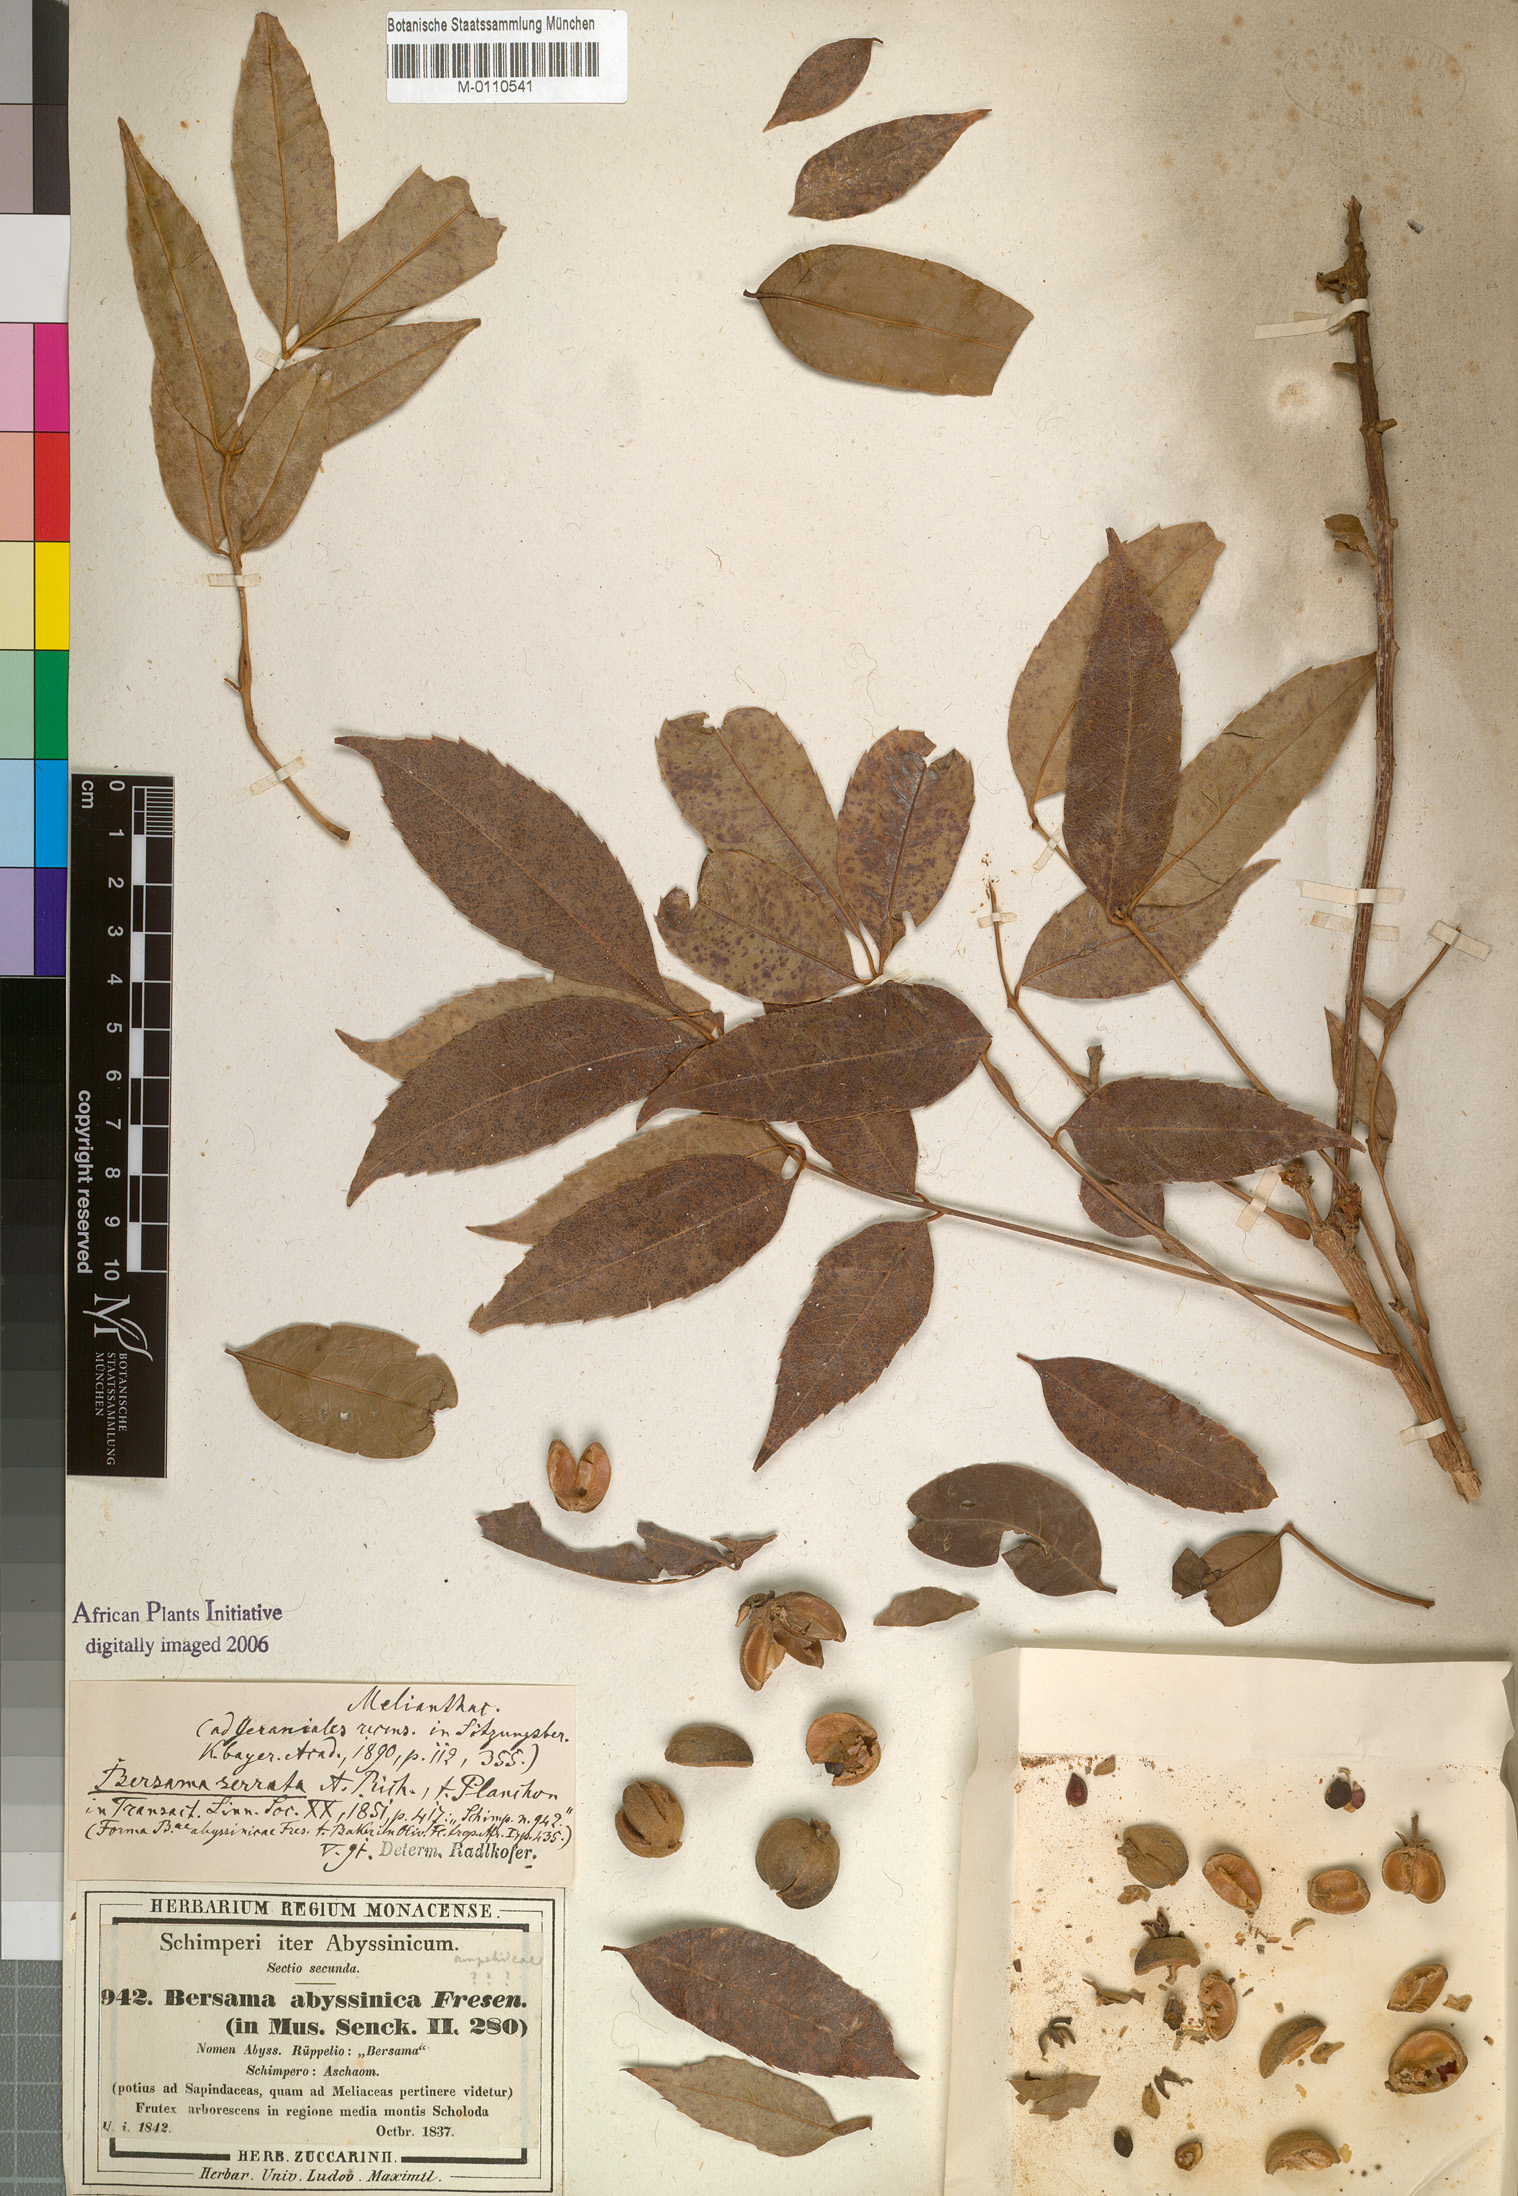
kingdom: Plantae
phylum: Tracheophyta
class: Magnoliopsida
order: Geraniales
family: Melianthaceae
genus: Bersama
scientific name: Bersama abyssinica
